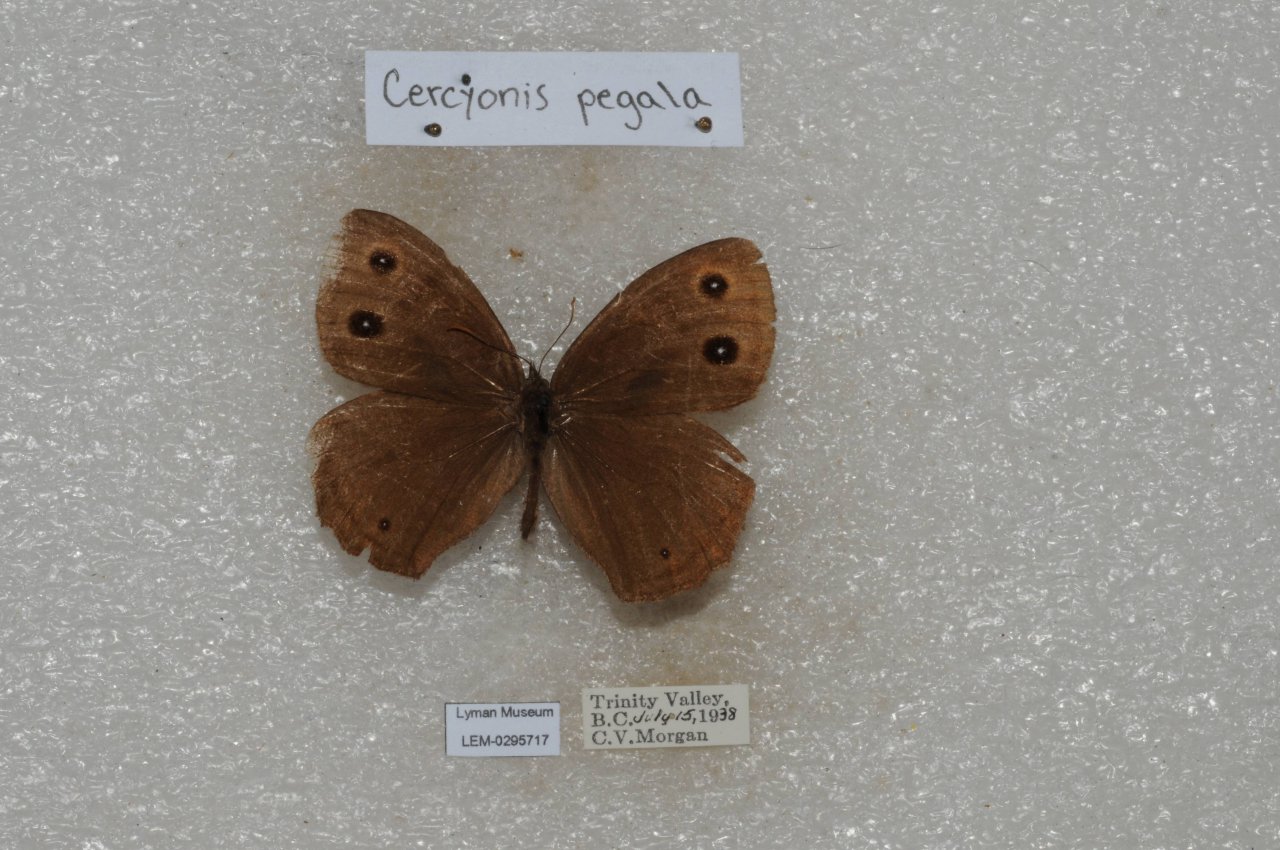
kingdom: Animalia
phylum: Arthropoda
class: Insecta
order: Lepidoptera
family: Nymphalidae
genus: Cercyonis
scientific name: Cercyonis pegala
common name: Common Wood-Nymph
